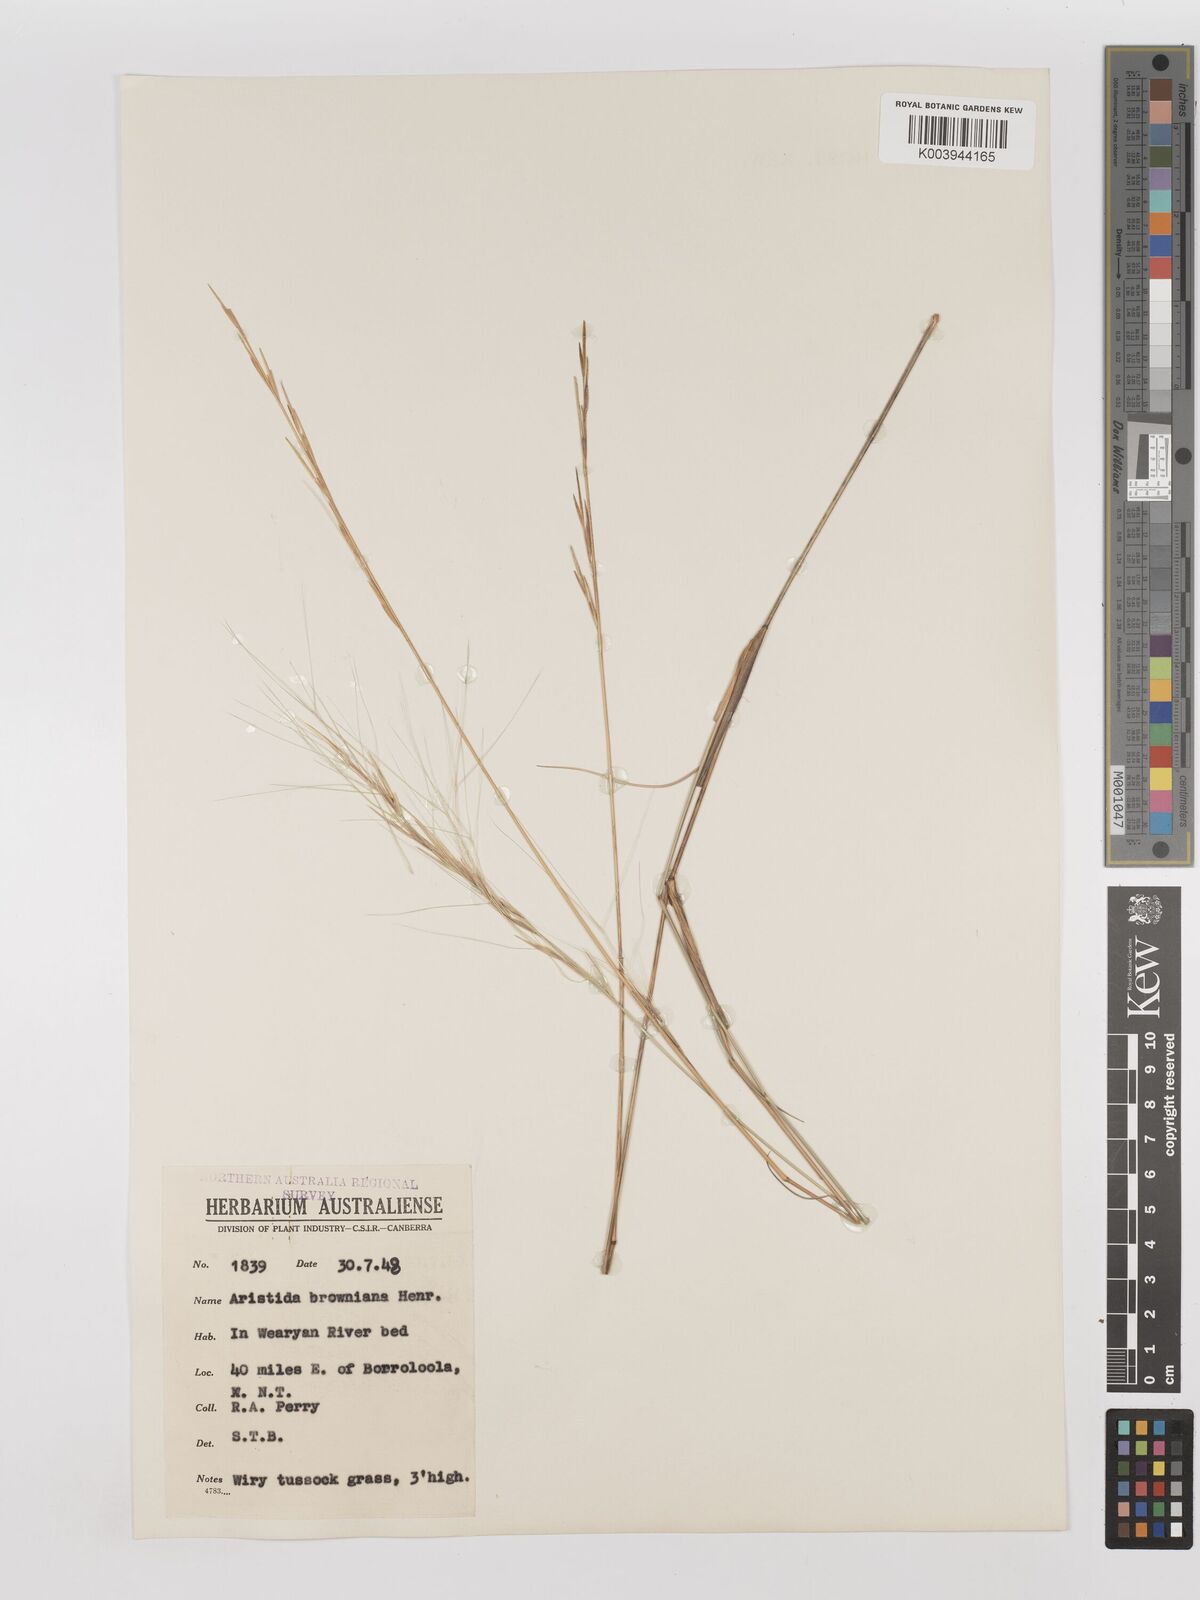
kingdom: Plantae
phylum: Tracheophyta
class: Liliopsida
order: Poales
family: Poaceae
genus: Aristida
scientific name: Aristida holathera
